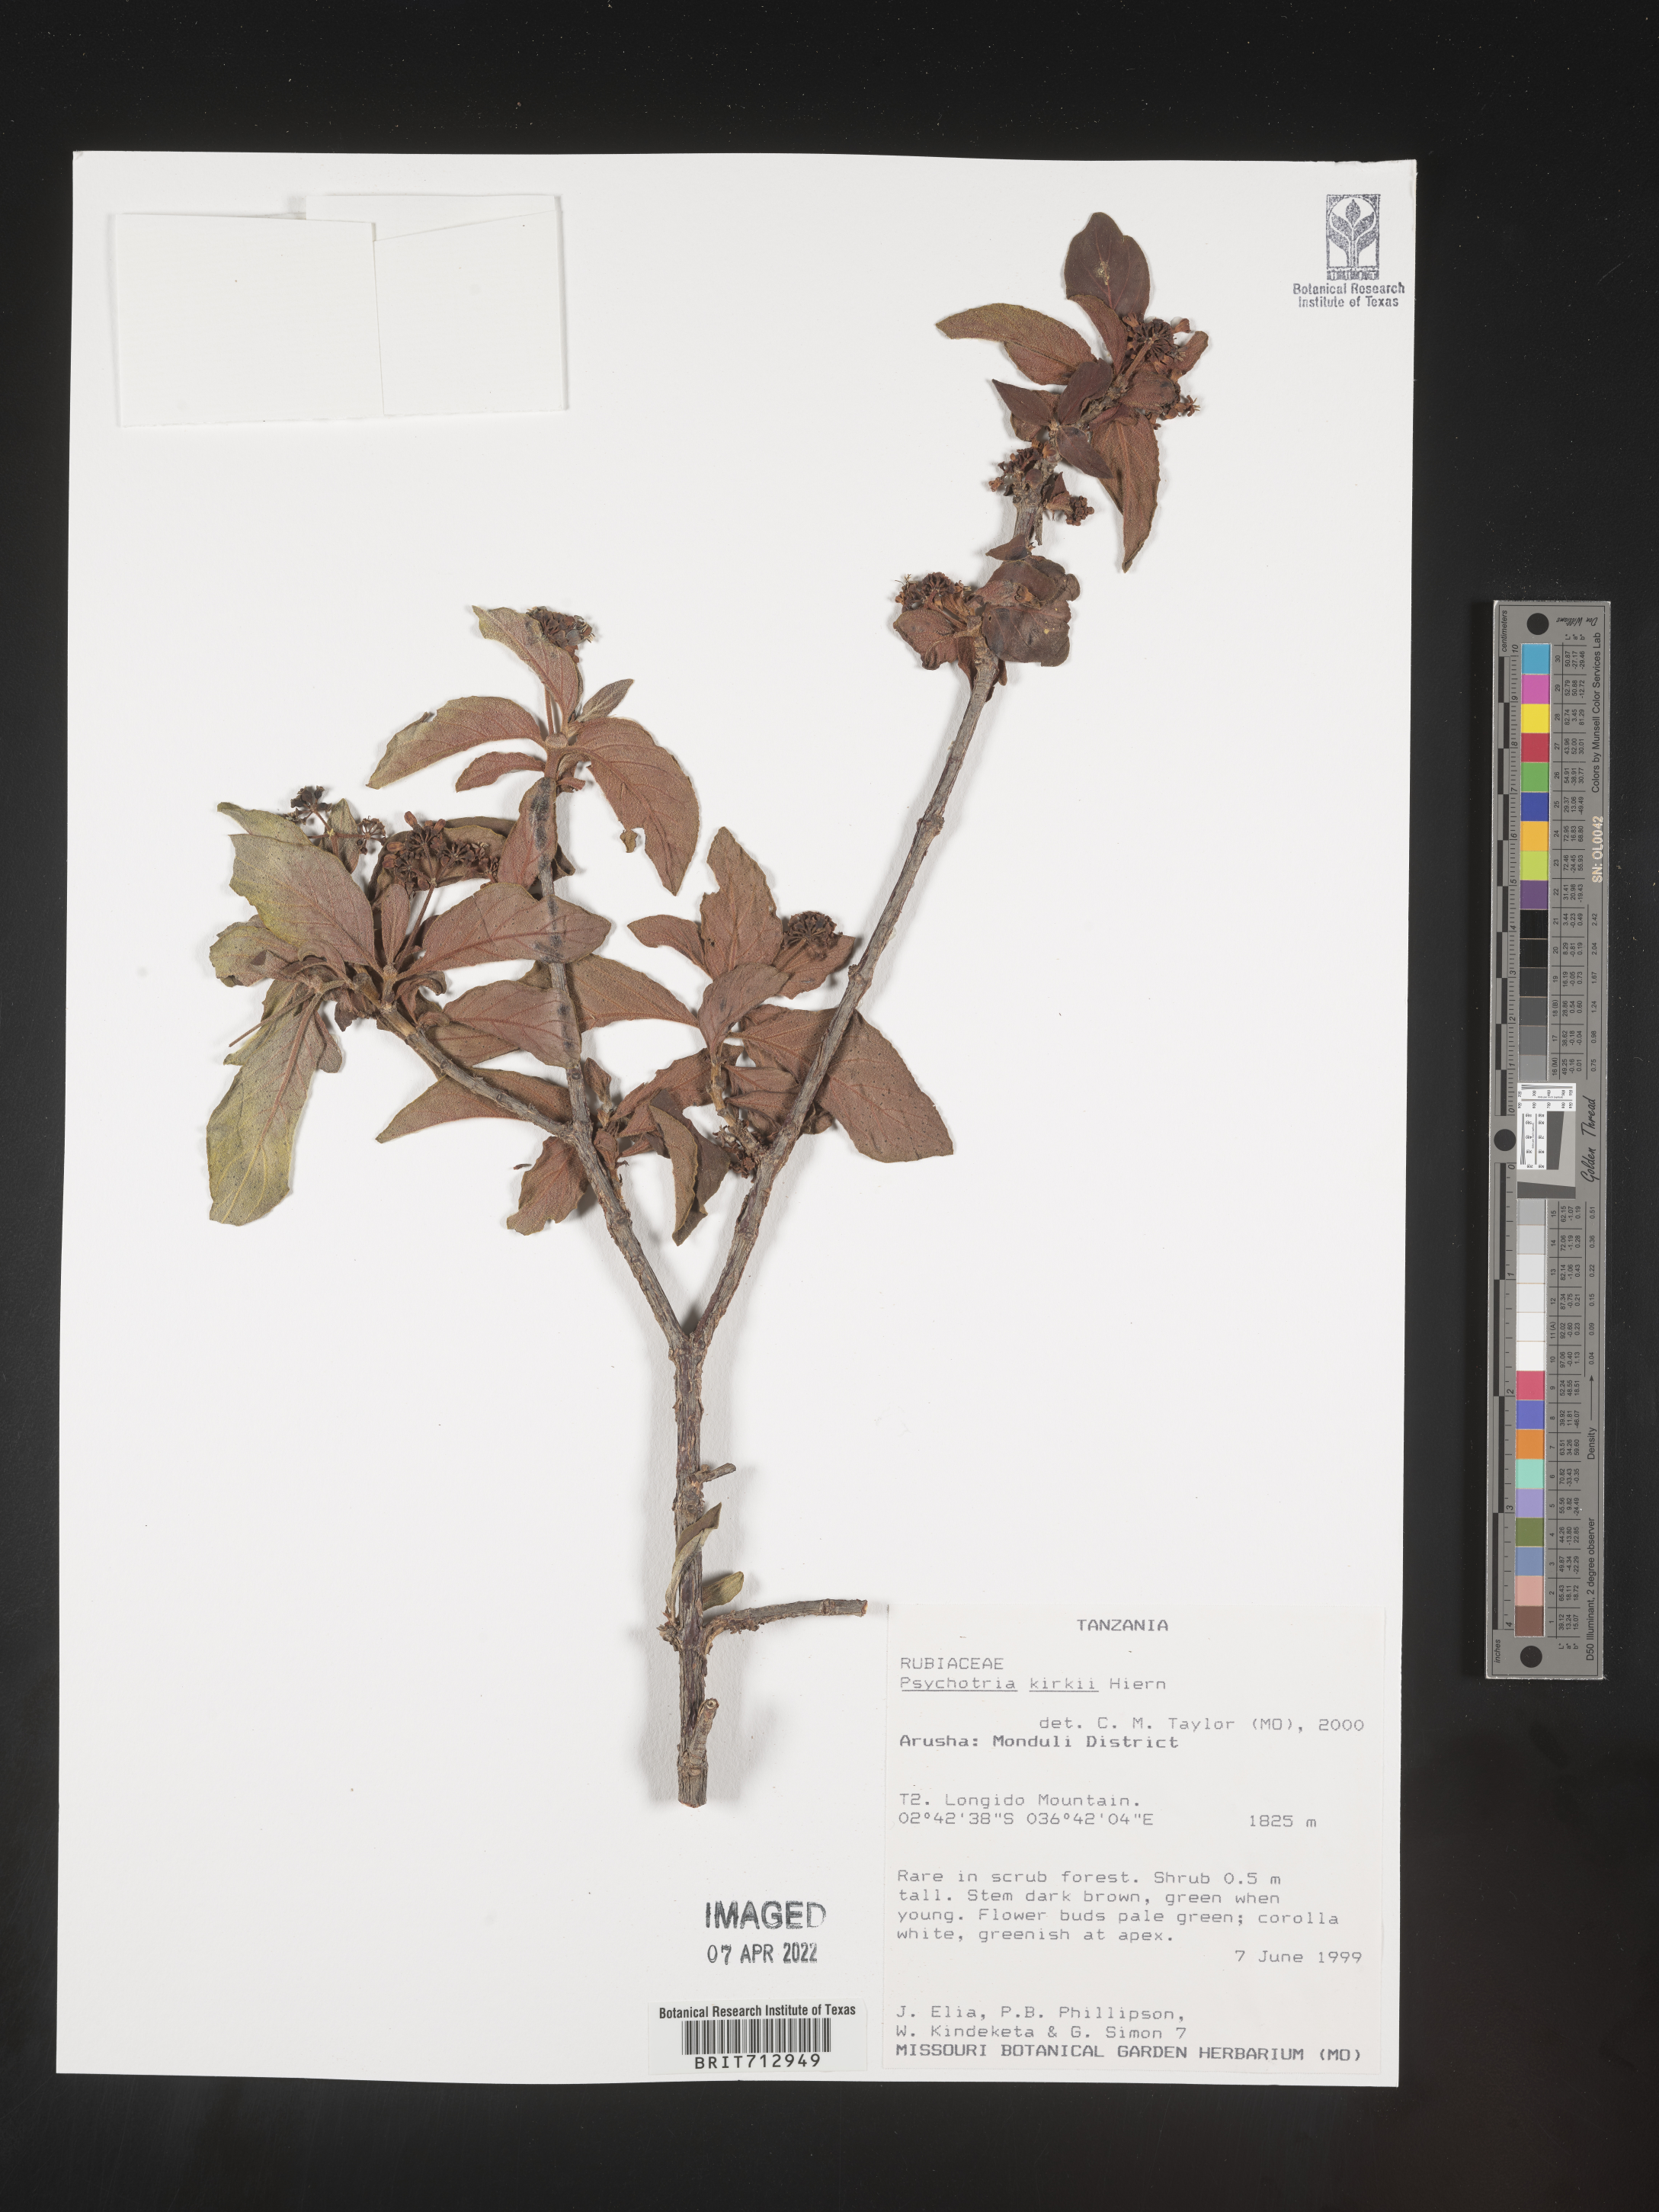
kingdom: Plantae
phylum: Tracheophyta
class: Magnoliopsida
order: Gentianales
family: Rubiaceae
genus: Psychotria
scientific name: Psychotria punctata
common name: Dotted wild coffee
